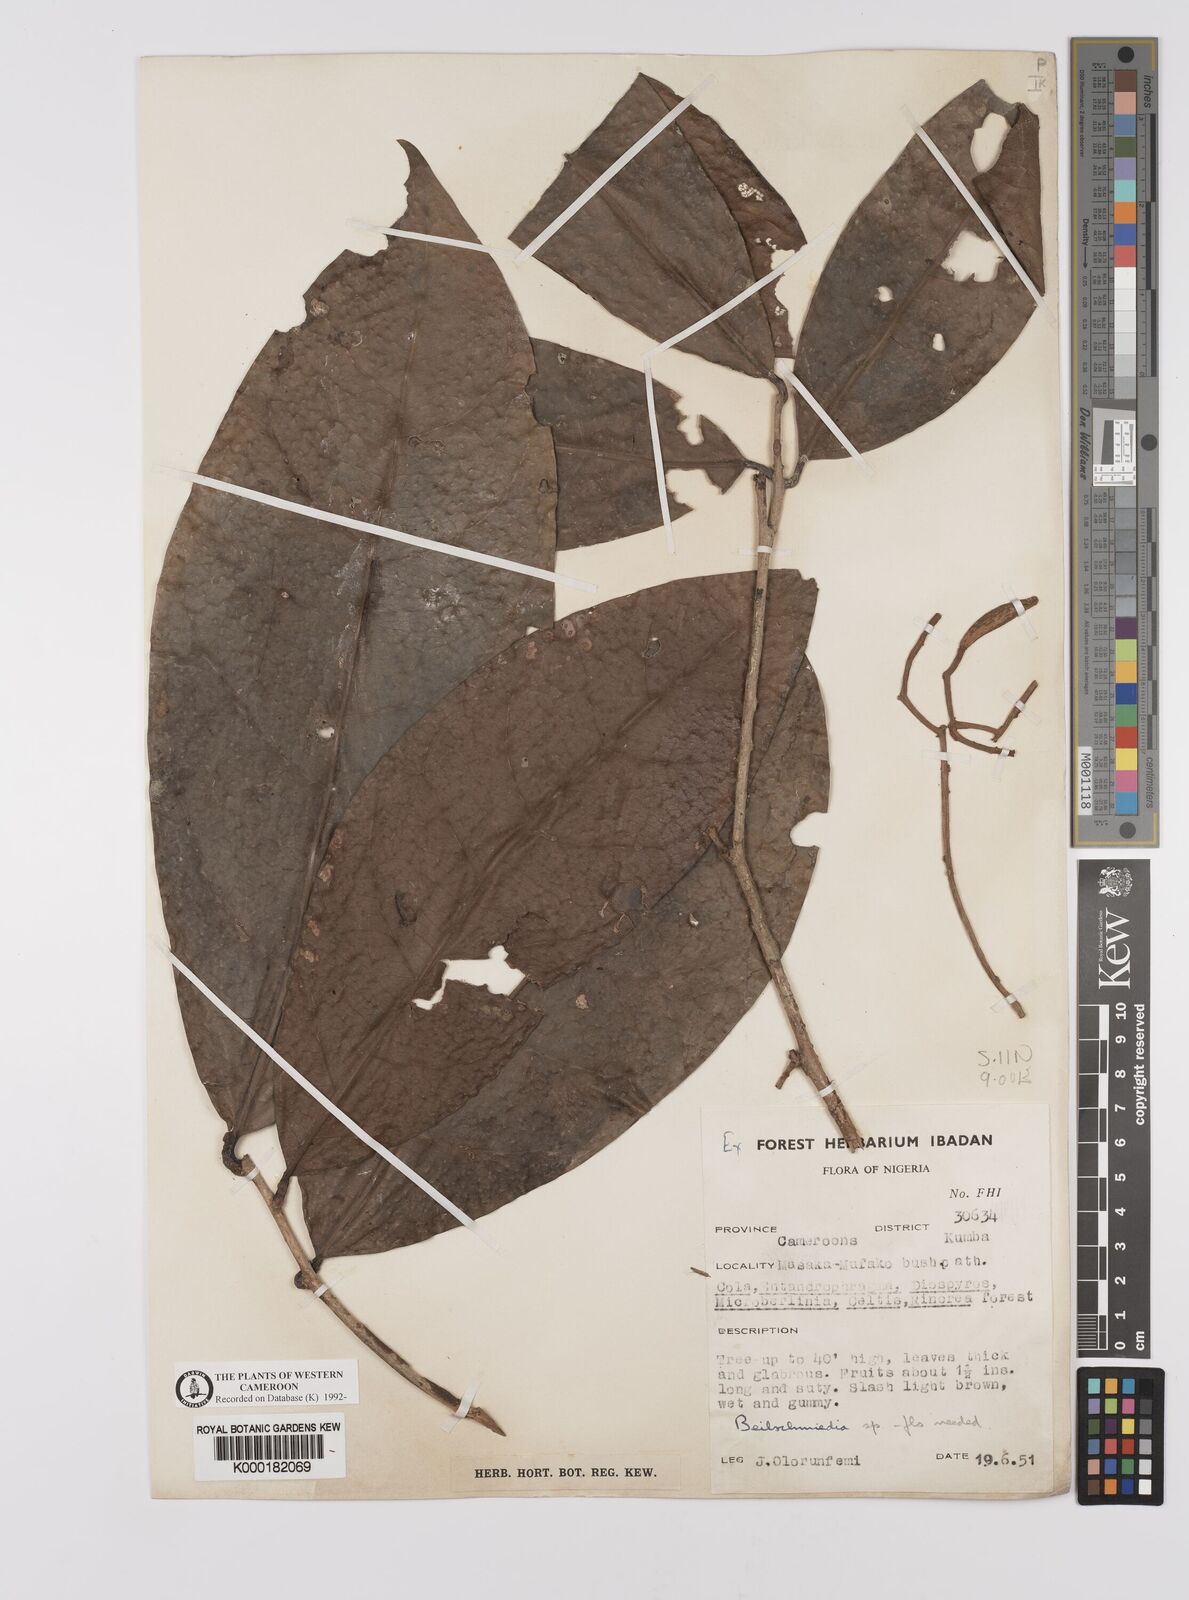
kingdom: Plantae
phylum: Tracheophyta
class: Magnoliopsida
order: Laurales
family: Lauraceae
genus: Beilschmiedia
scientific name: Beilschmiedia
